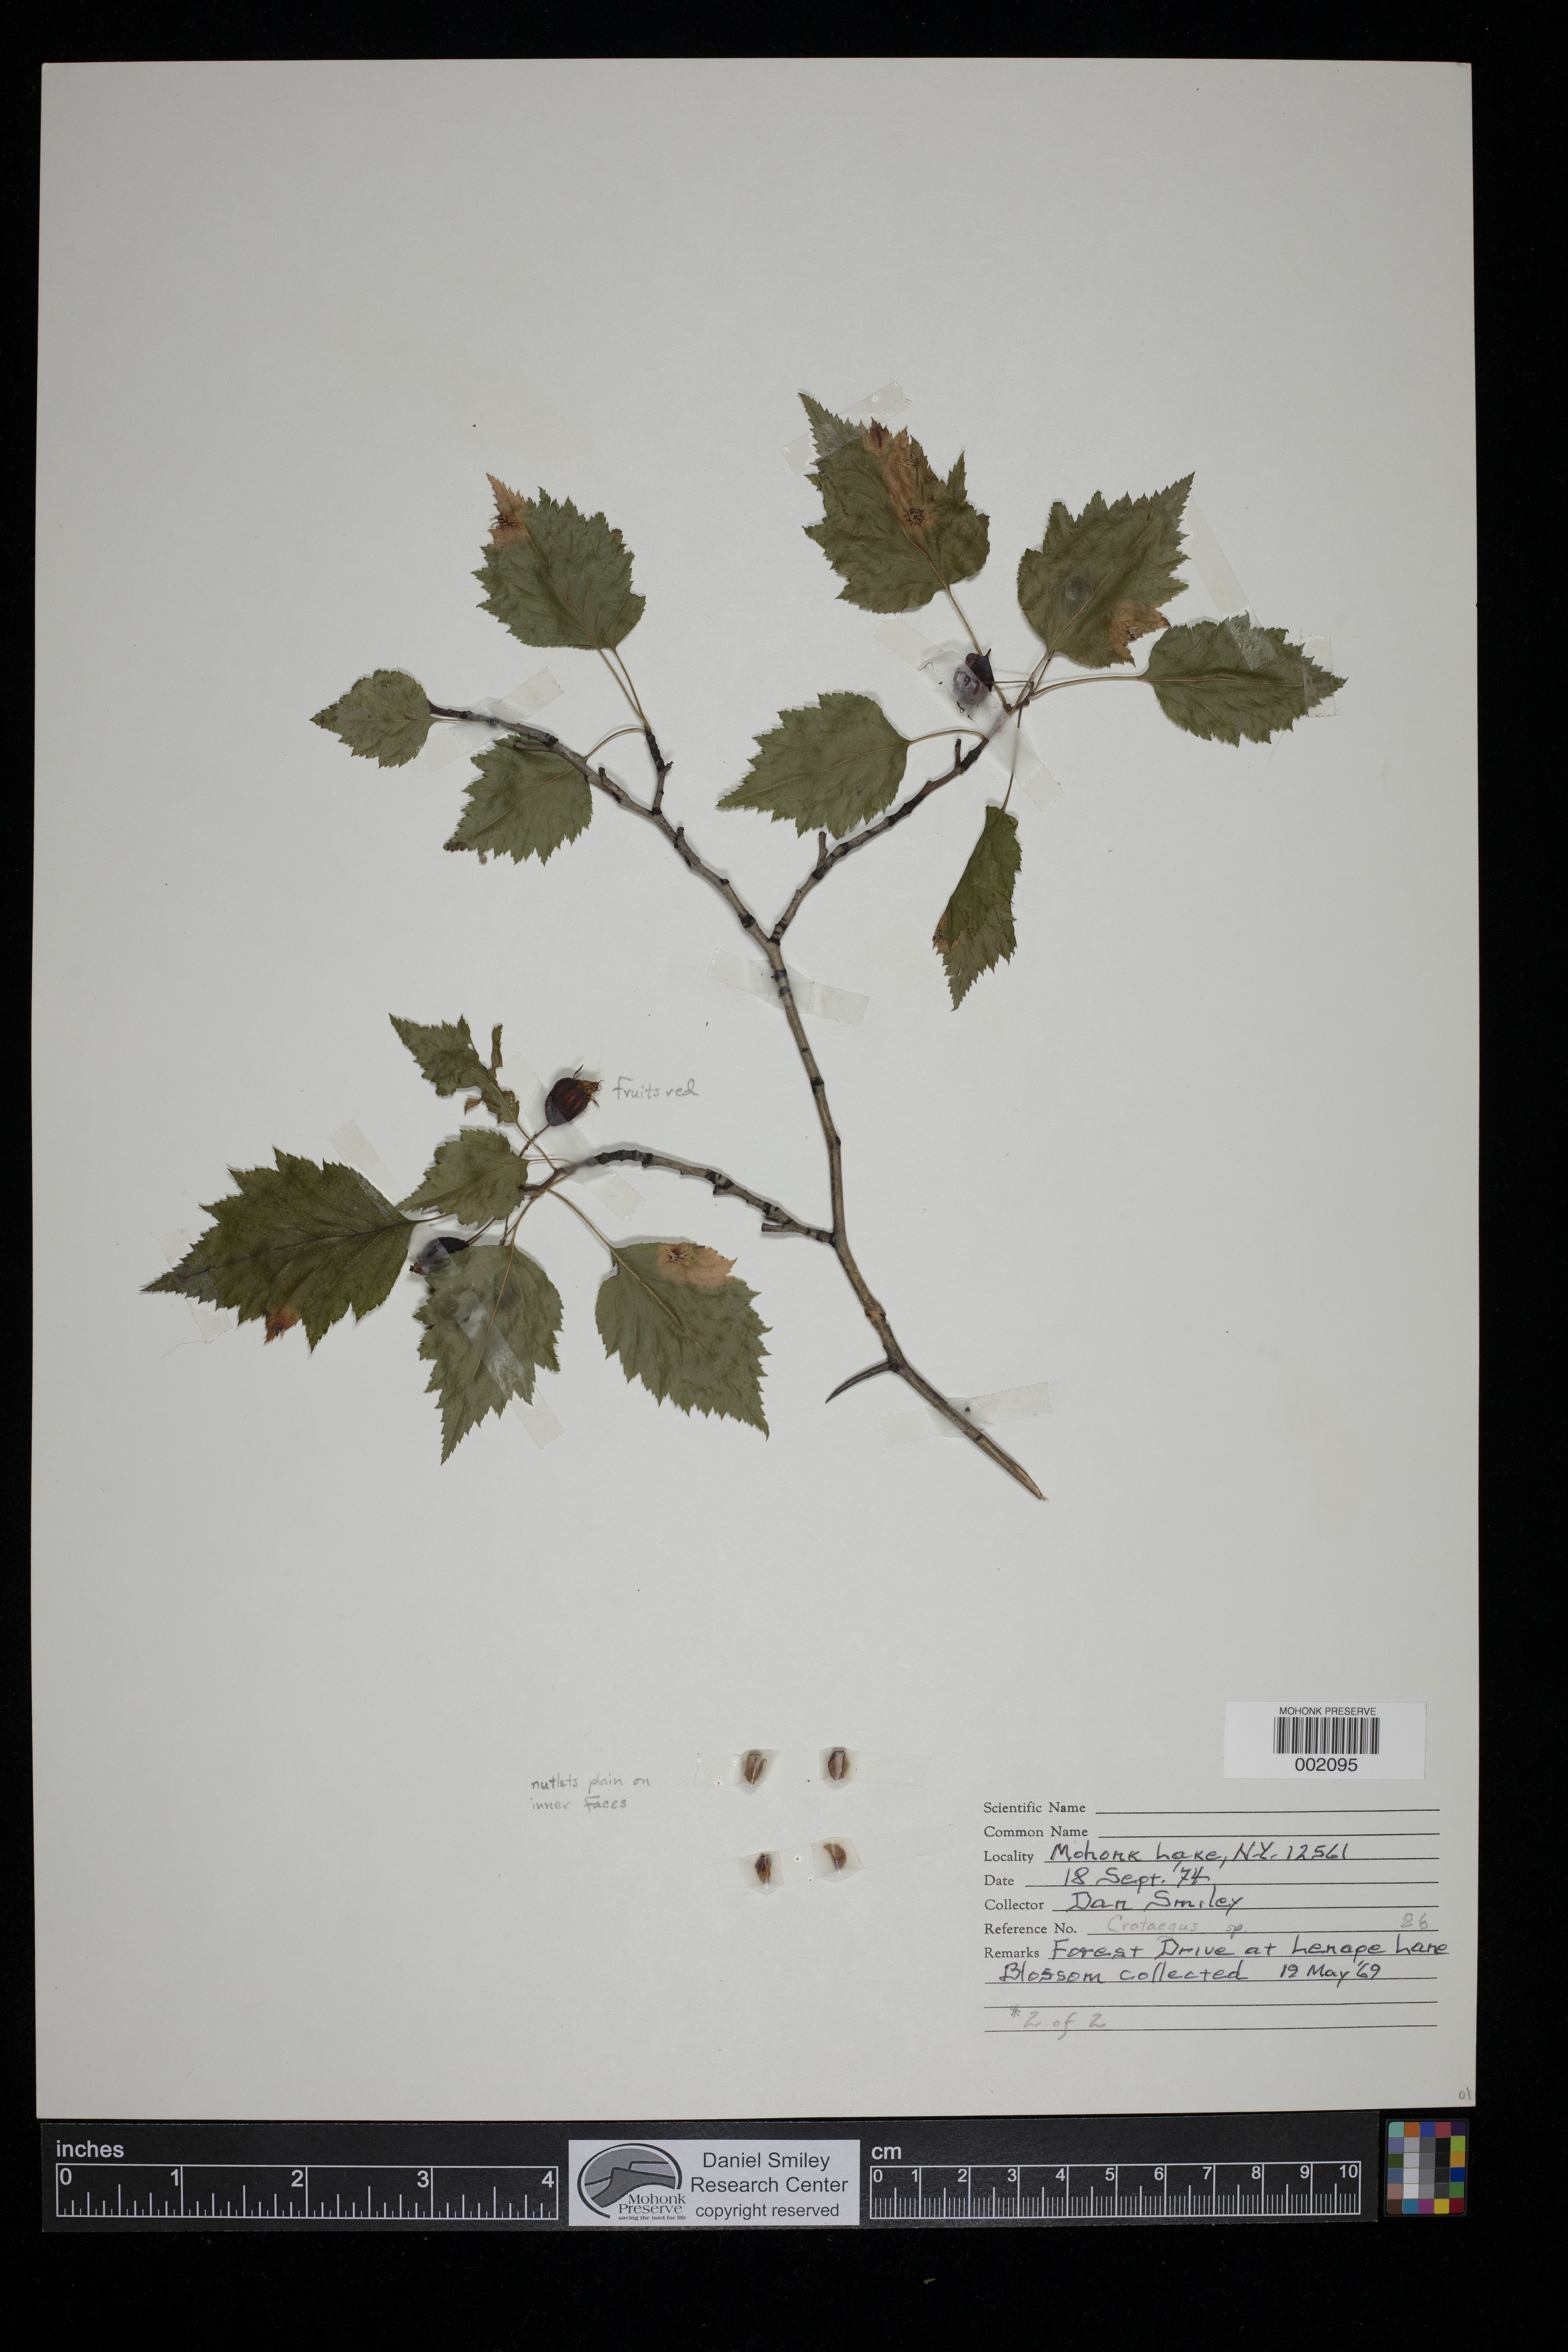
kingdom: Plantae
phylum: Tracheophyta
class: Magnoliopsida
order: Rosales
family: Rosaceae
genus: Crataegus
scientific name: Crataegus
